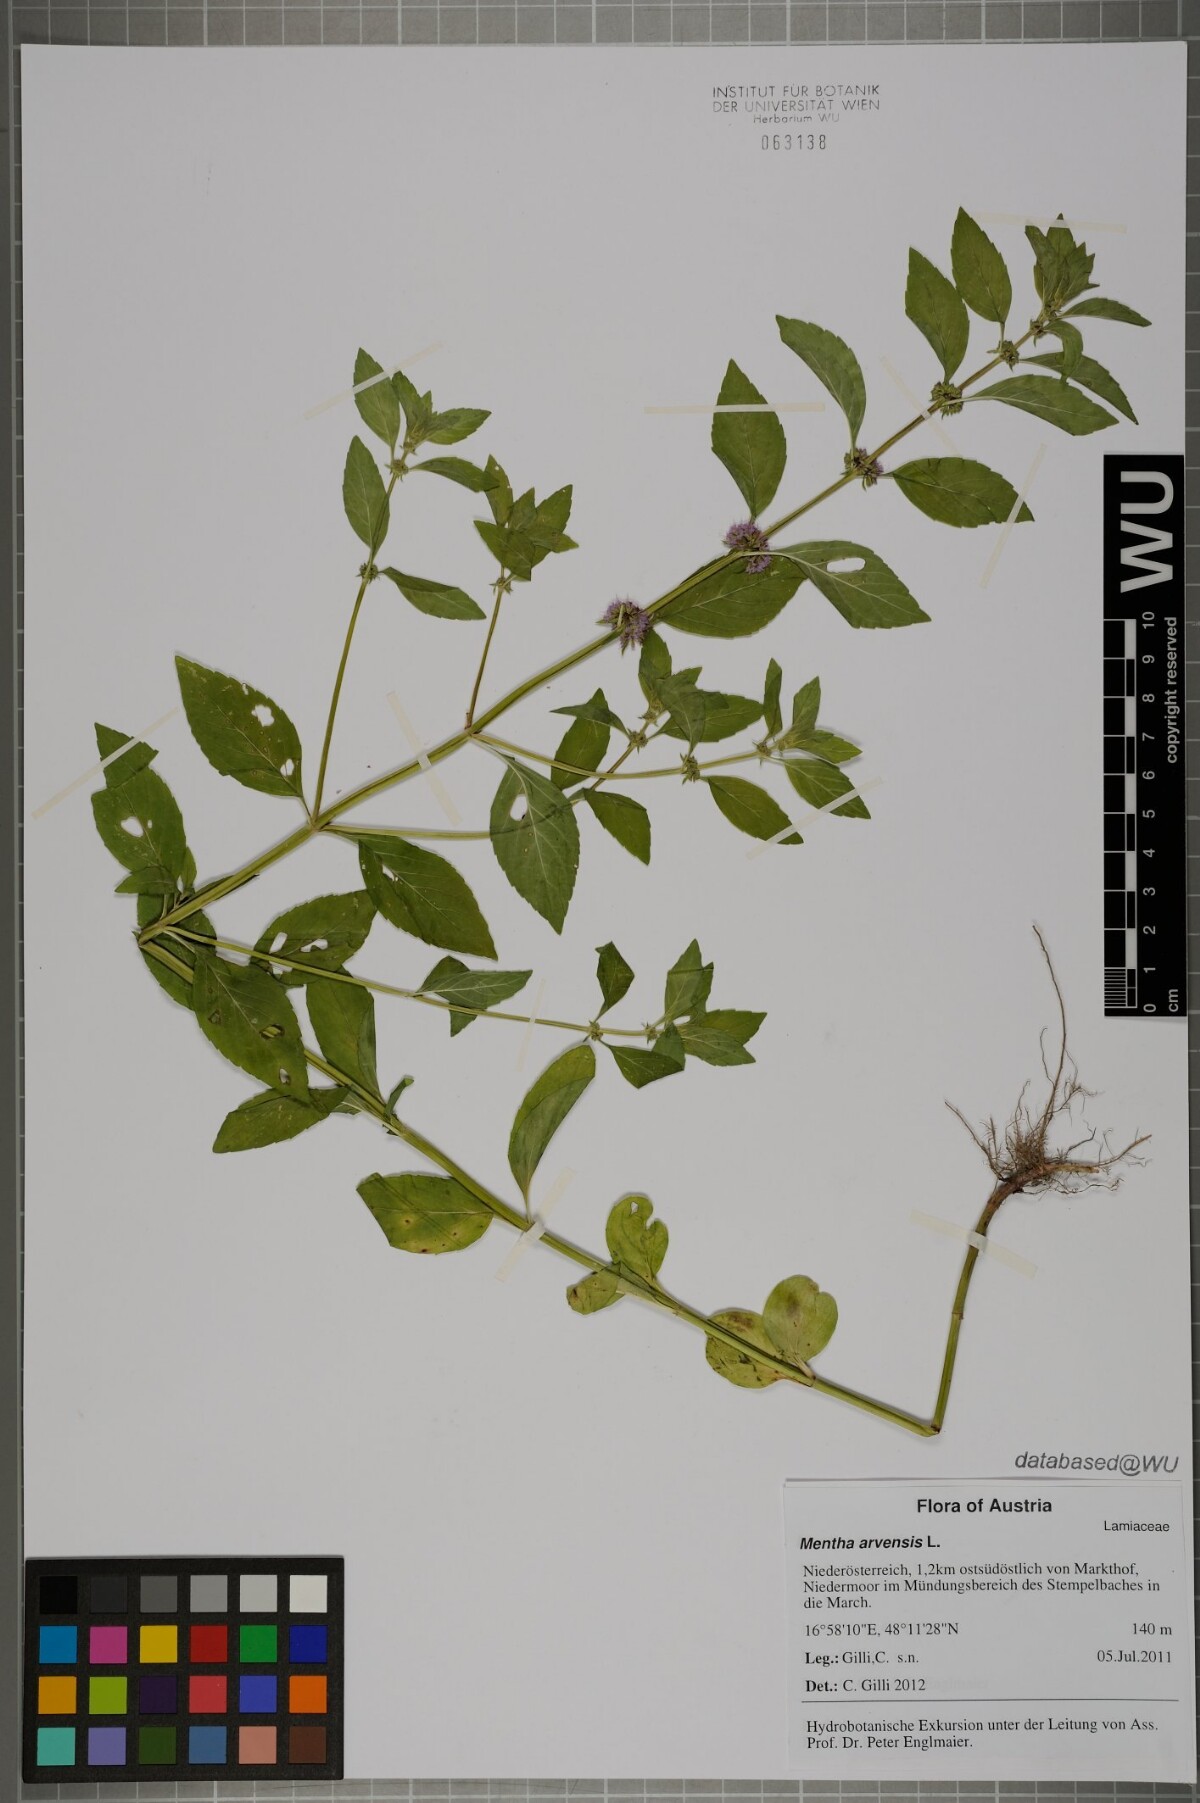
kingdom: Plantae
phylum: Tracheophyta
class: Magnoliopsida
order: Lamiales
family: Lamiaceae
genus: Mentha
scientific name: Mentha arvensis
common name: Corn mint
